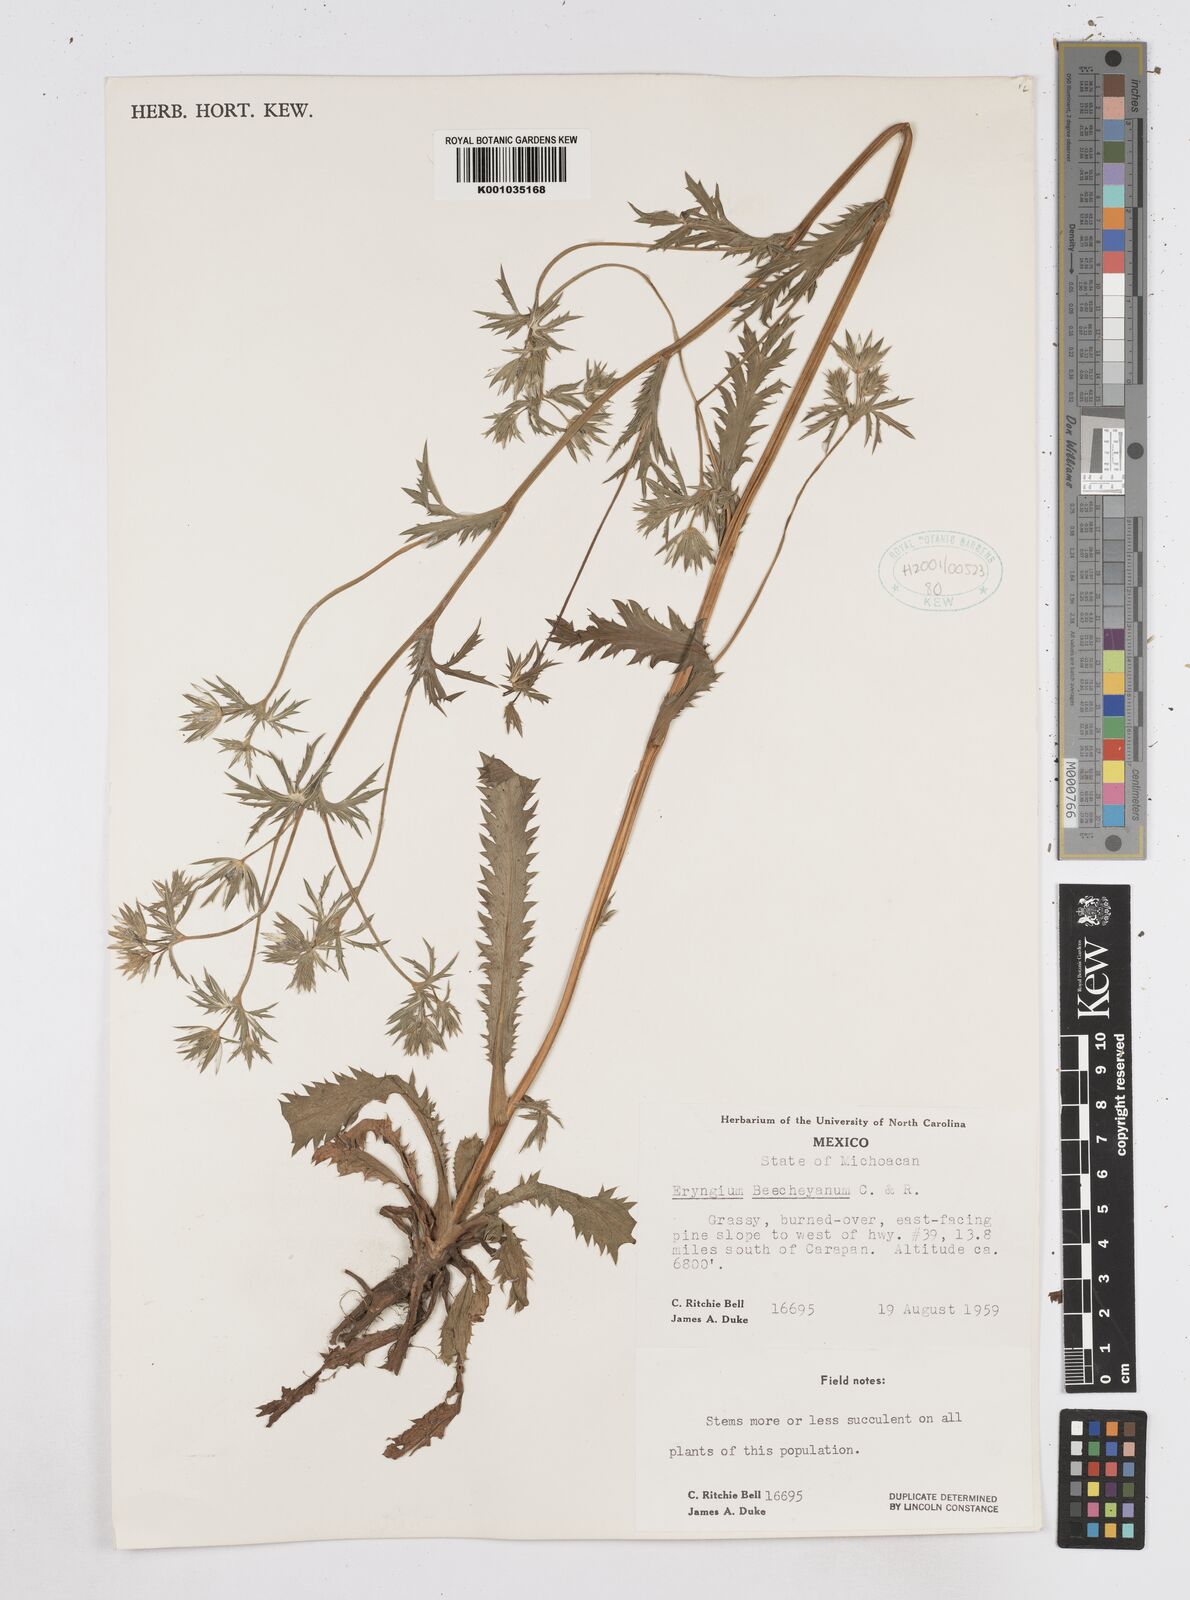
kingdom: Plantae
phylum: Tracheophyta
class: Magnoliopsida
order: Apiales
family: Apiaceae
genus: Eryngium
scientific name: Eryngium beecheyanum
